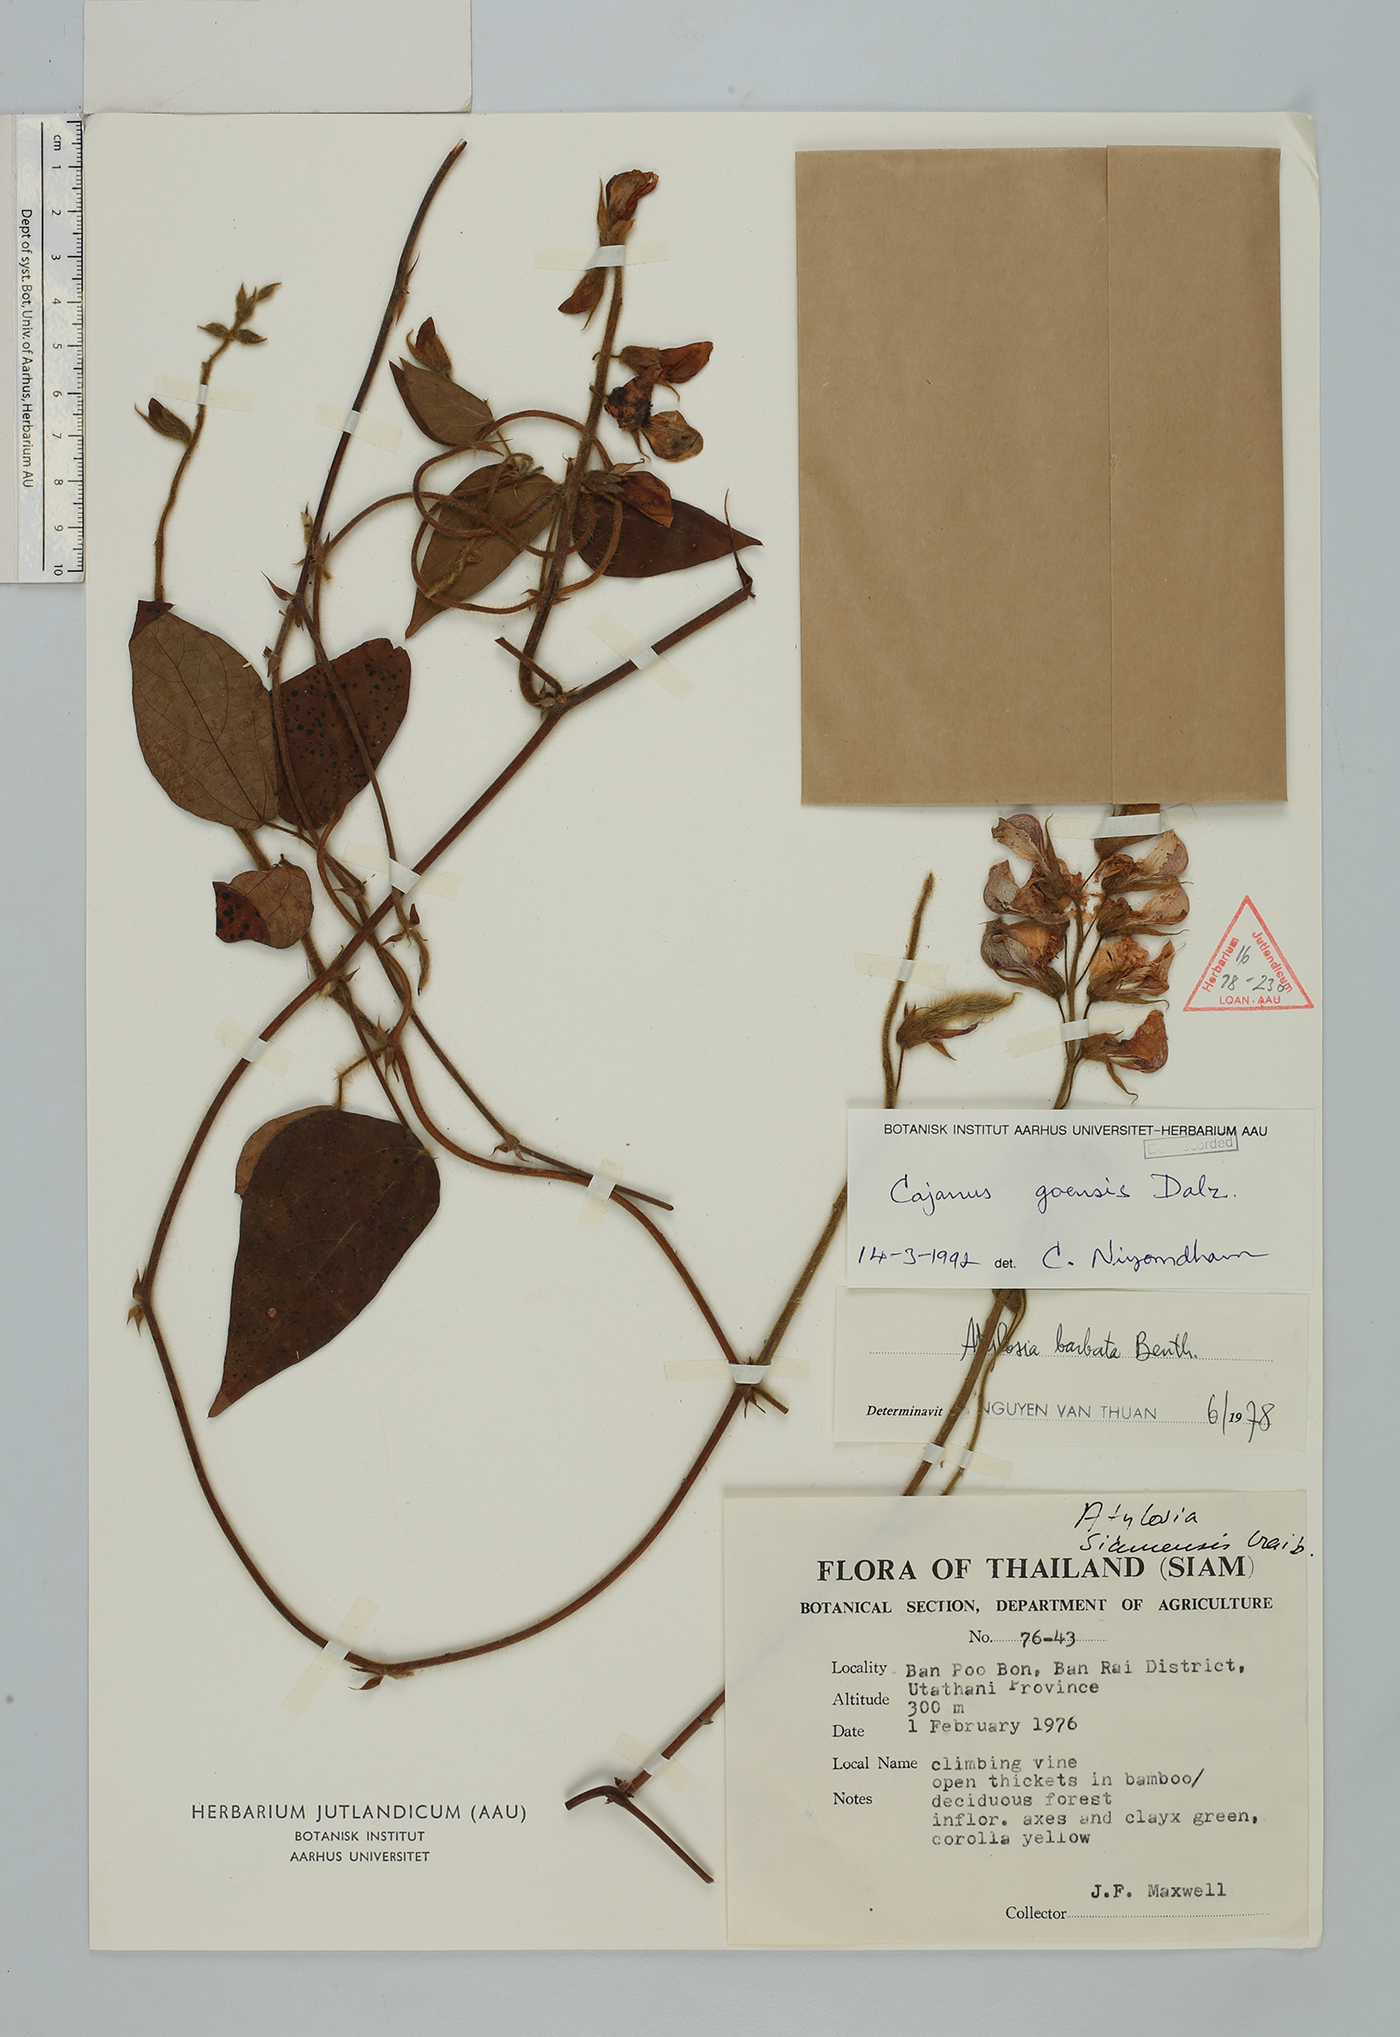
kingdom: Plantae
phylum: Tracheophyta
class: Magnoliopsida
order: Fabales
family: Fabaceae
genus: Cajanus
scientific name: Cajanus goensis
